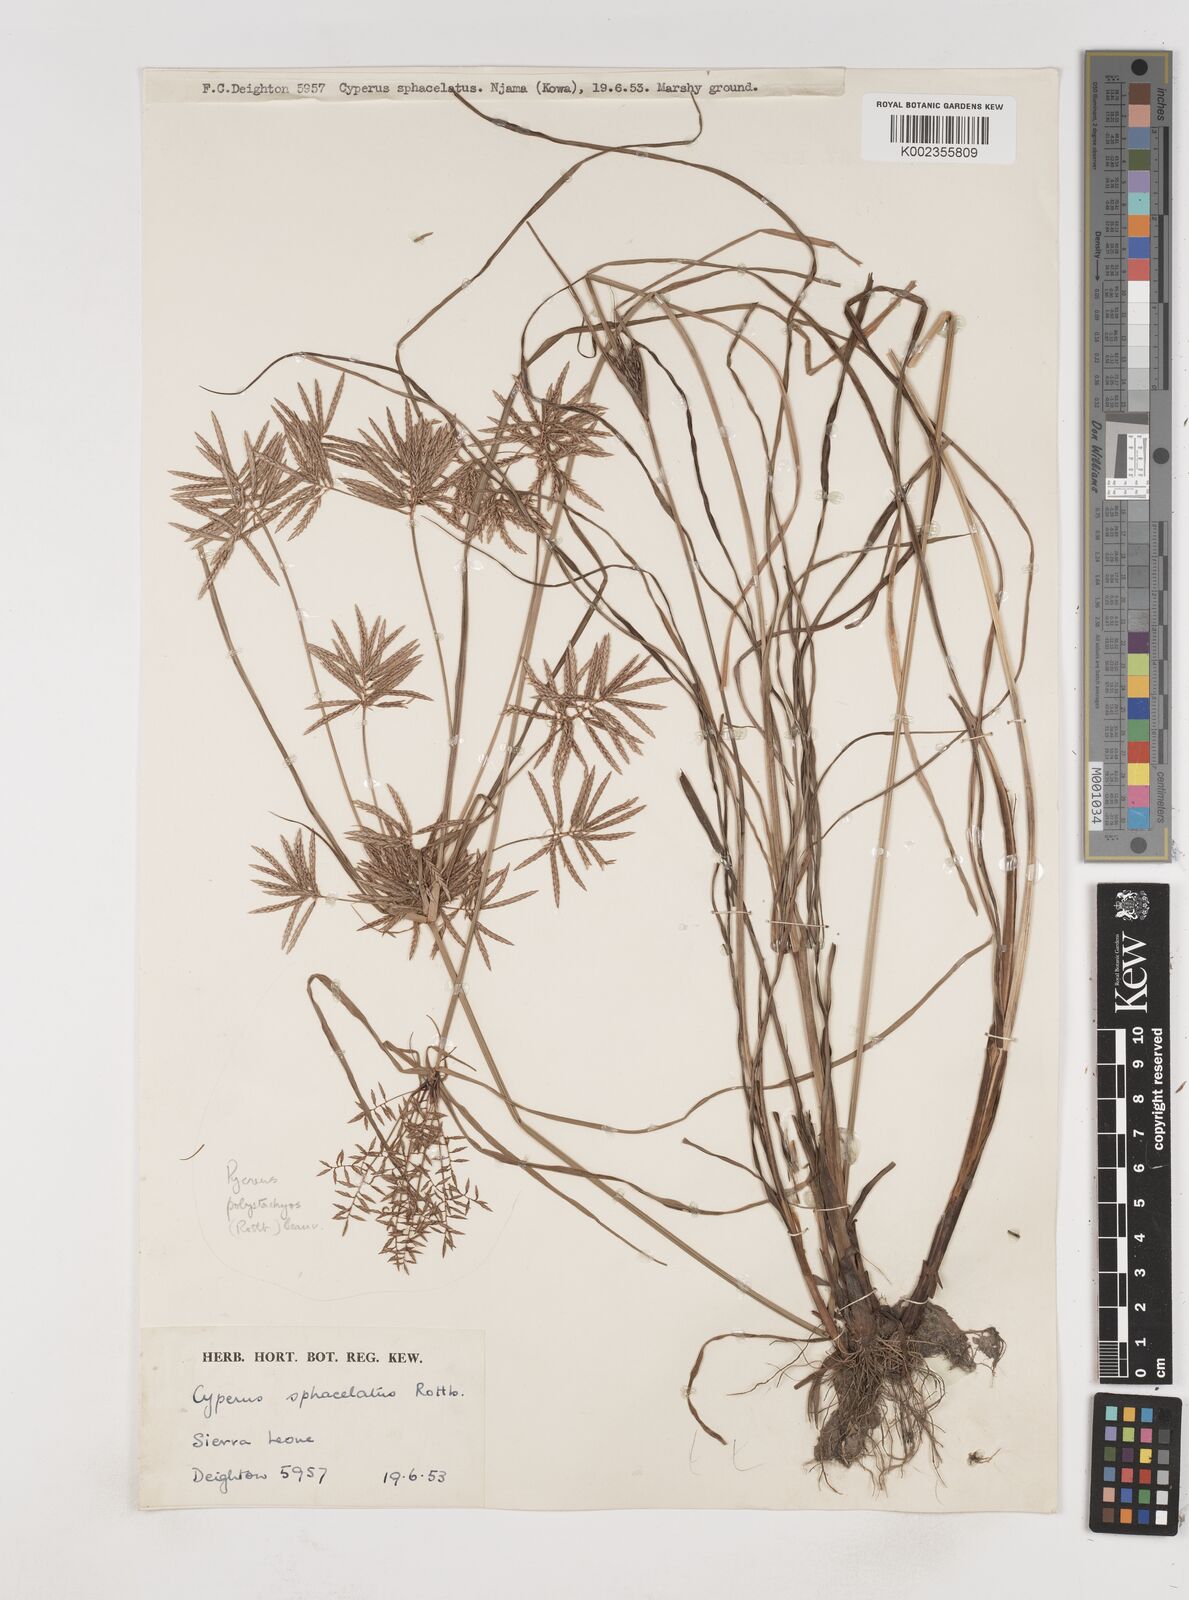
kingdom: Plantae
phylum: Tracheophyta
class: Liliopsida
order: Poales
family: Cyperaceae
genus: Cyperus
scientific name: Cyperus sphacelatus
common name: Roadside flatsedge
